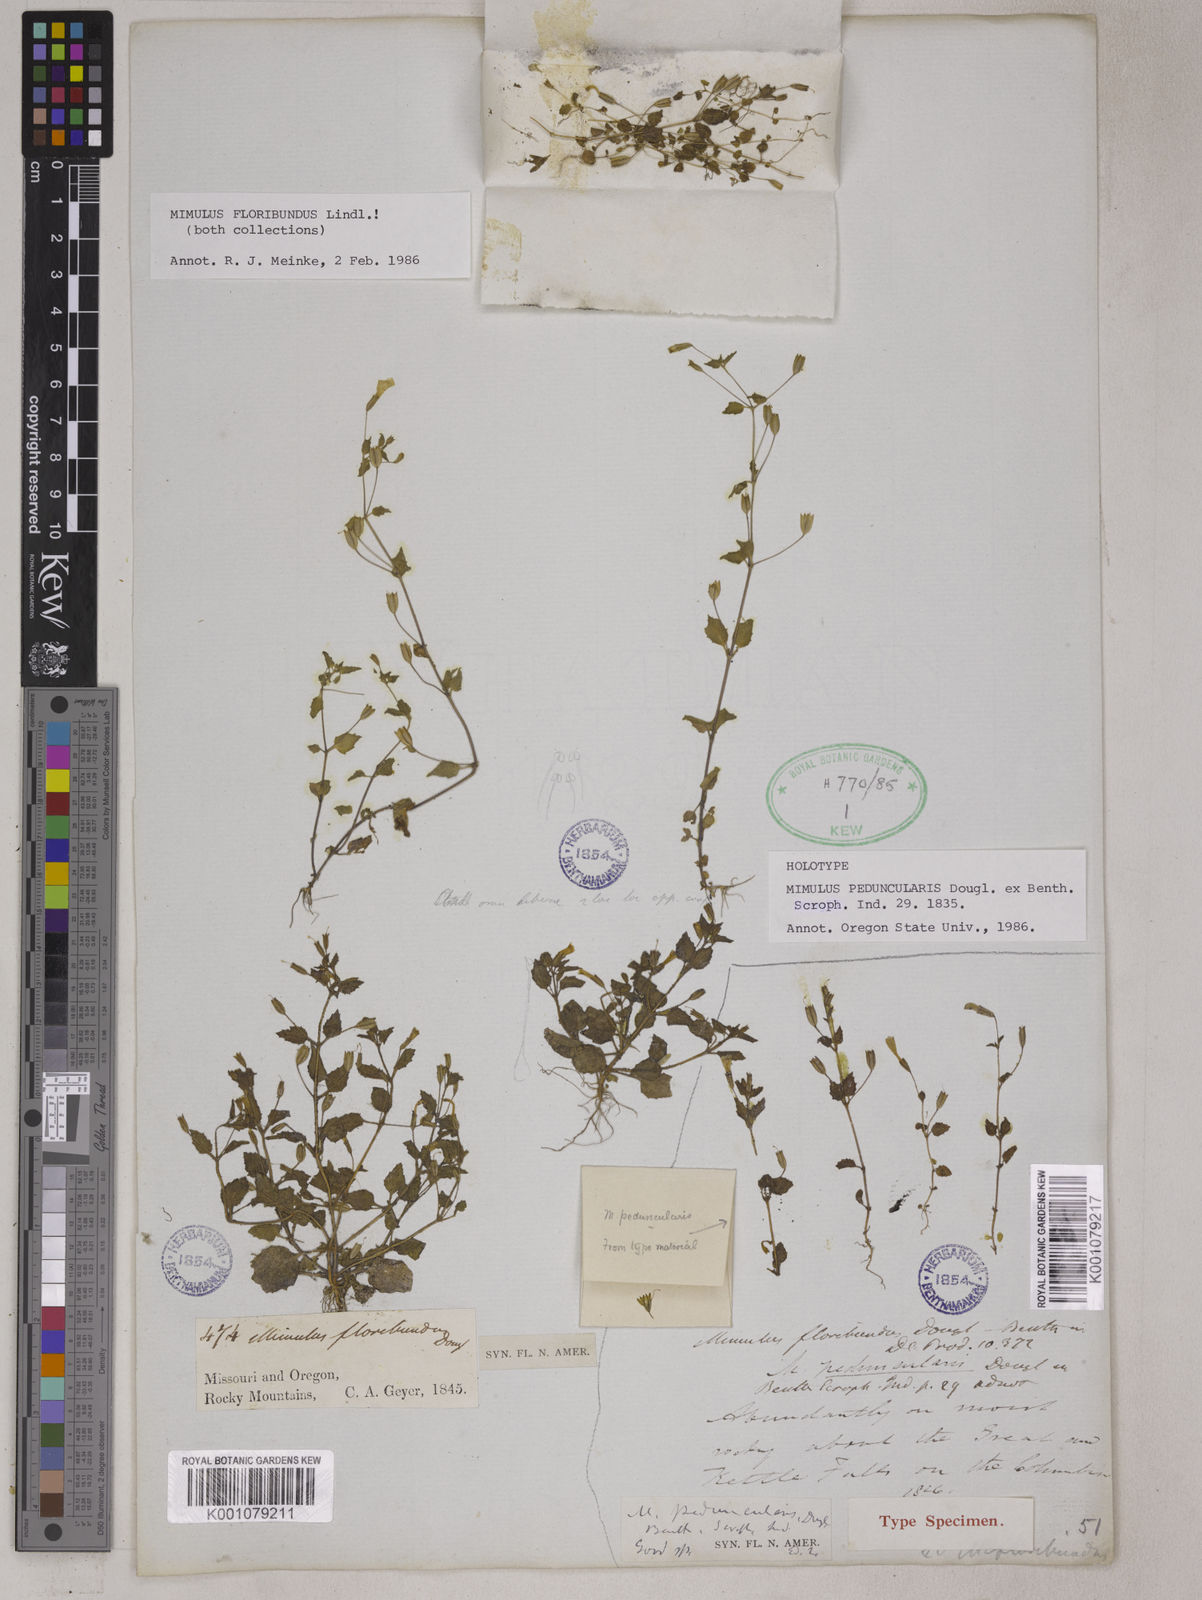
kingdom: Plantae
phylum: Tracheophyta
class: Magnoliopsida
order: Lamiales
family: Phrymaceae
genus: Mimulus
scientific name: Mimulus
